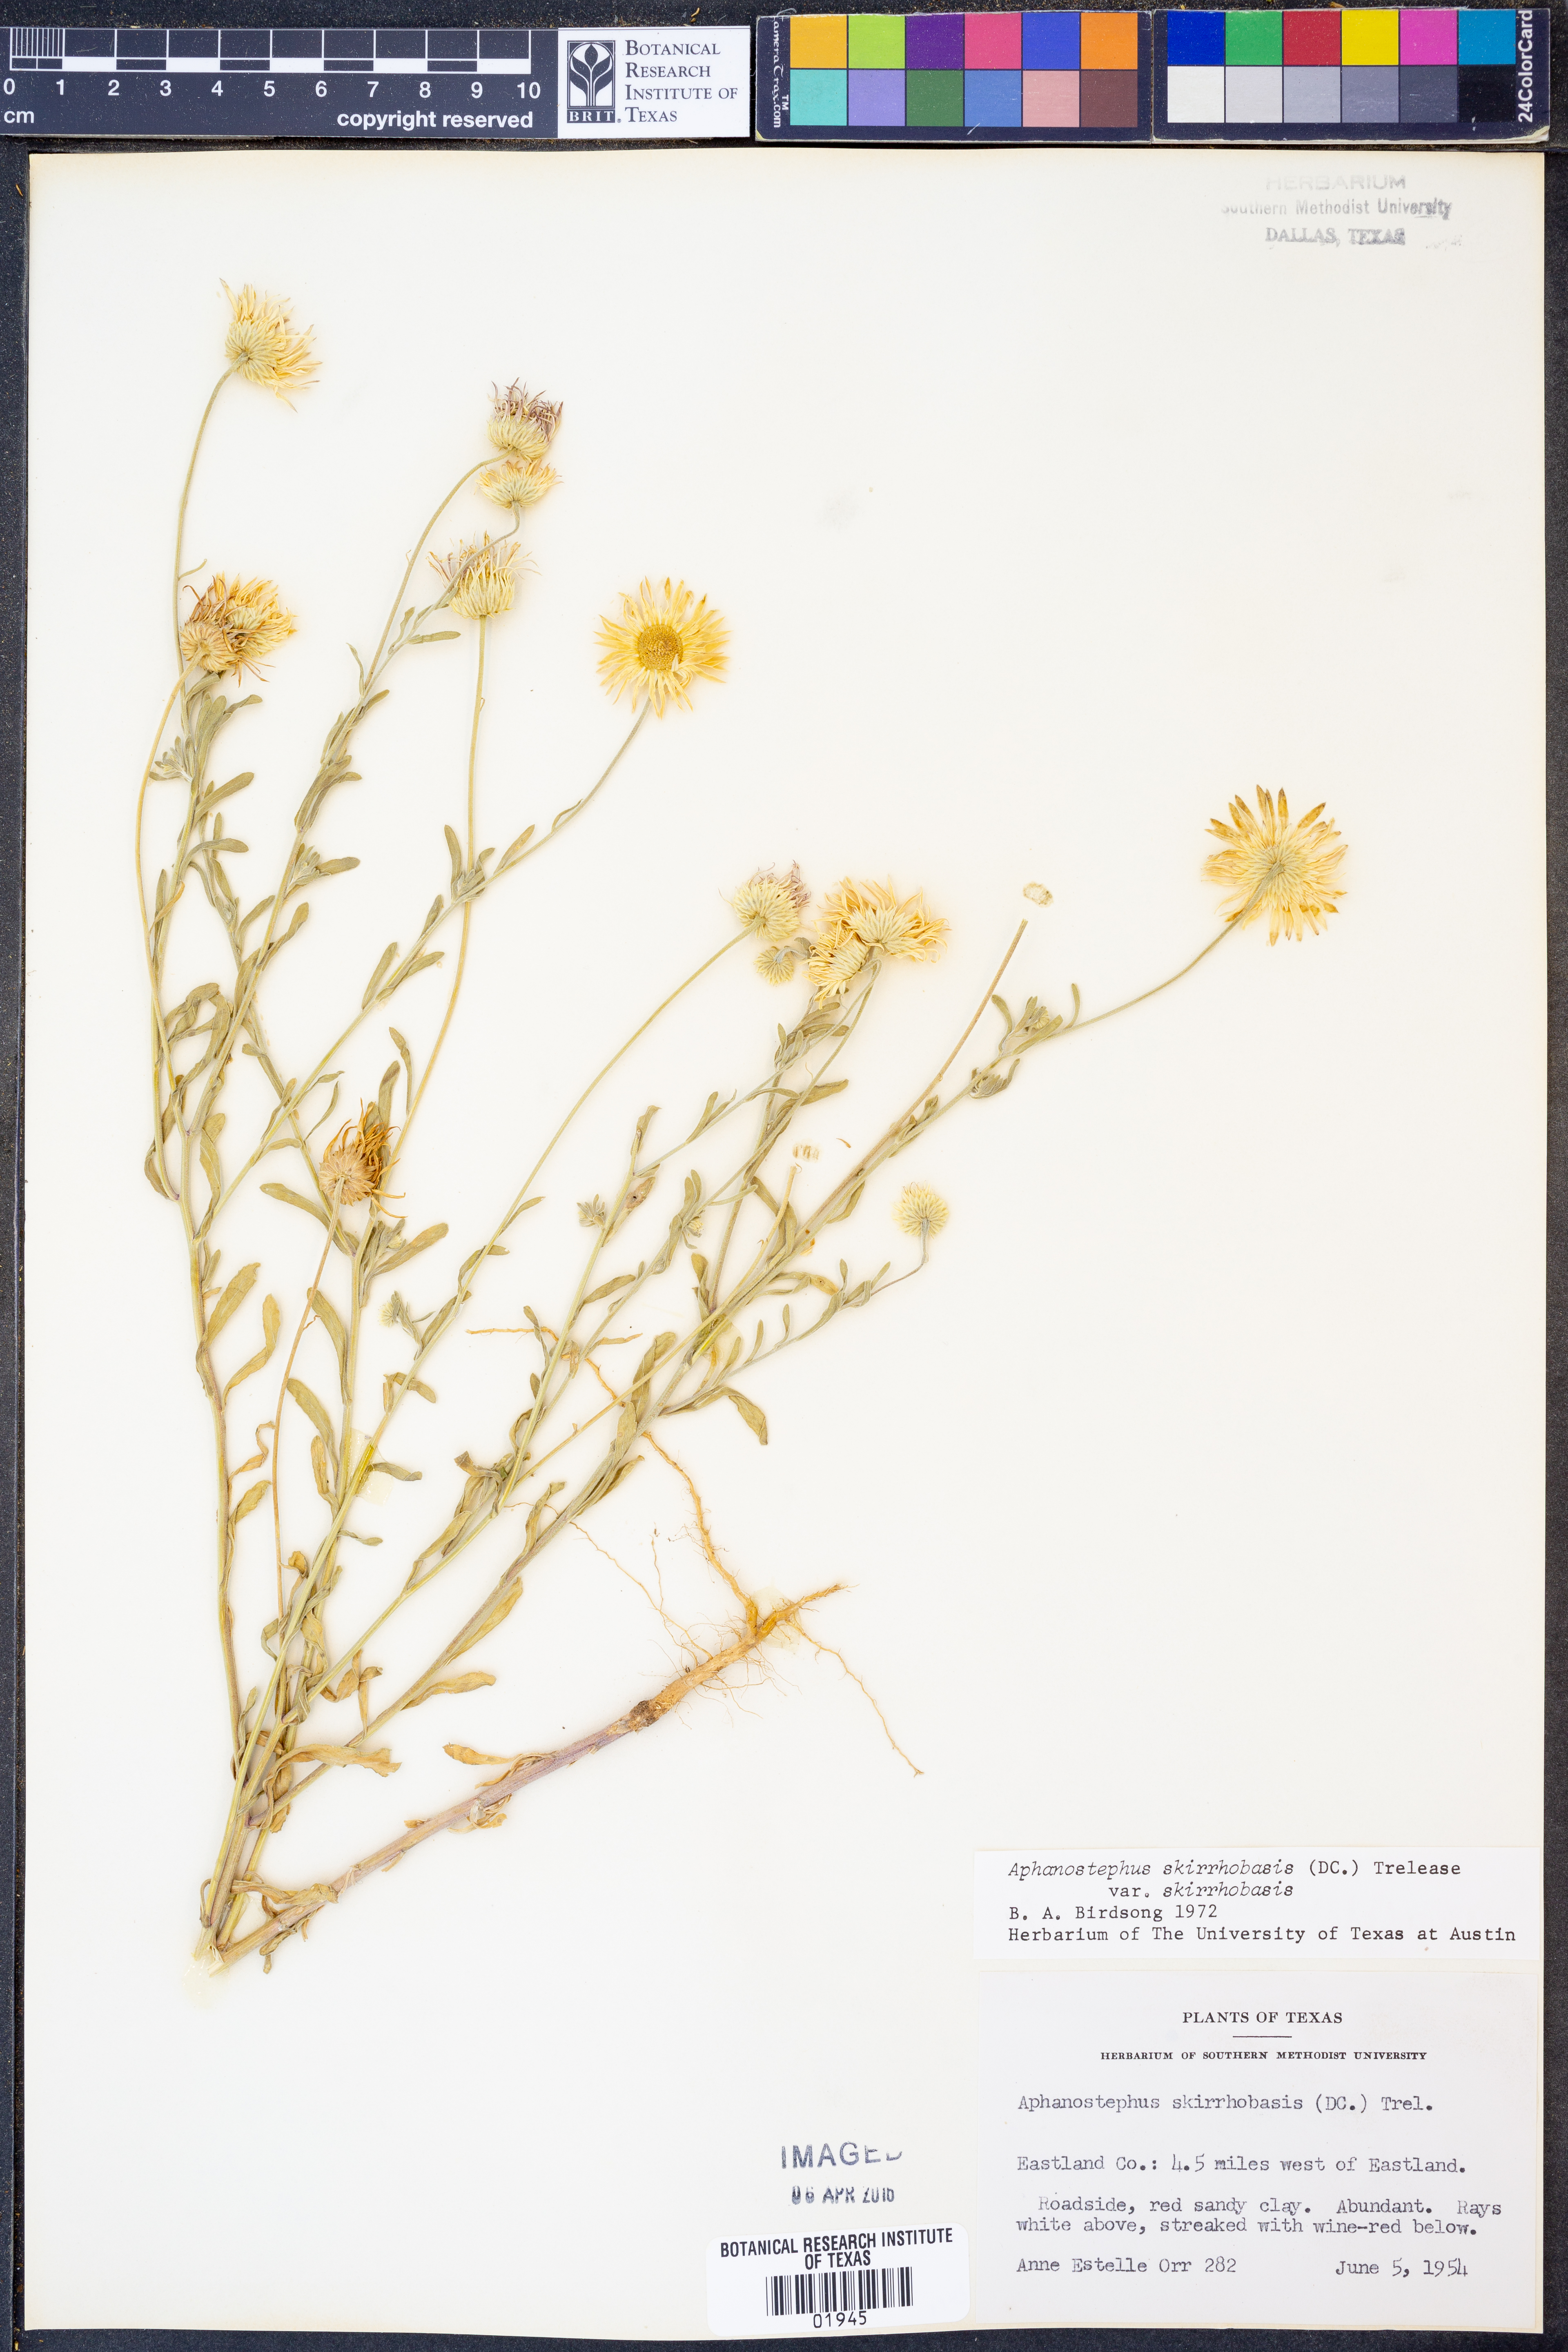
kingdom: Plantae
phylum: Tracheophyta
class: Magnoliopsida
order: Asterales
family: Asteraceae
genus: Aphanostephus
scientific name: Aphanostephus skirrhobasis
